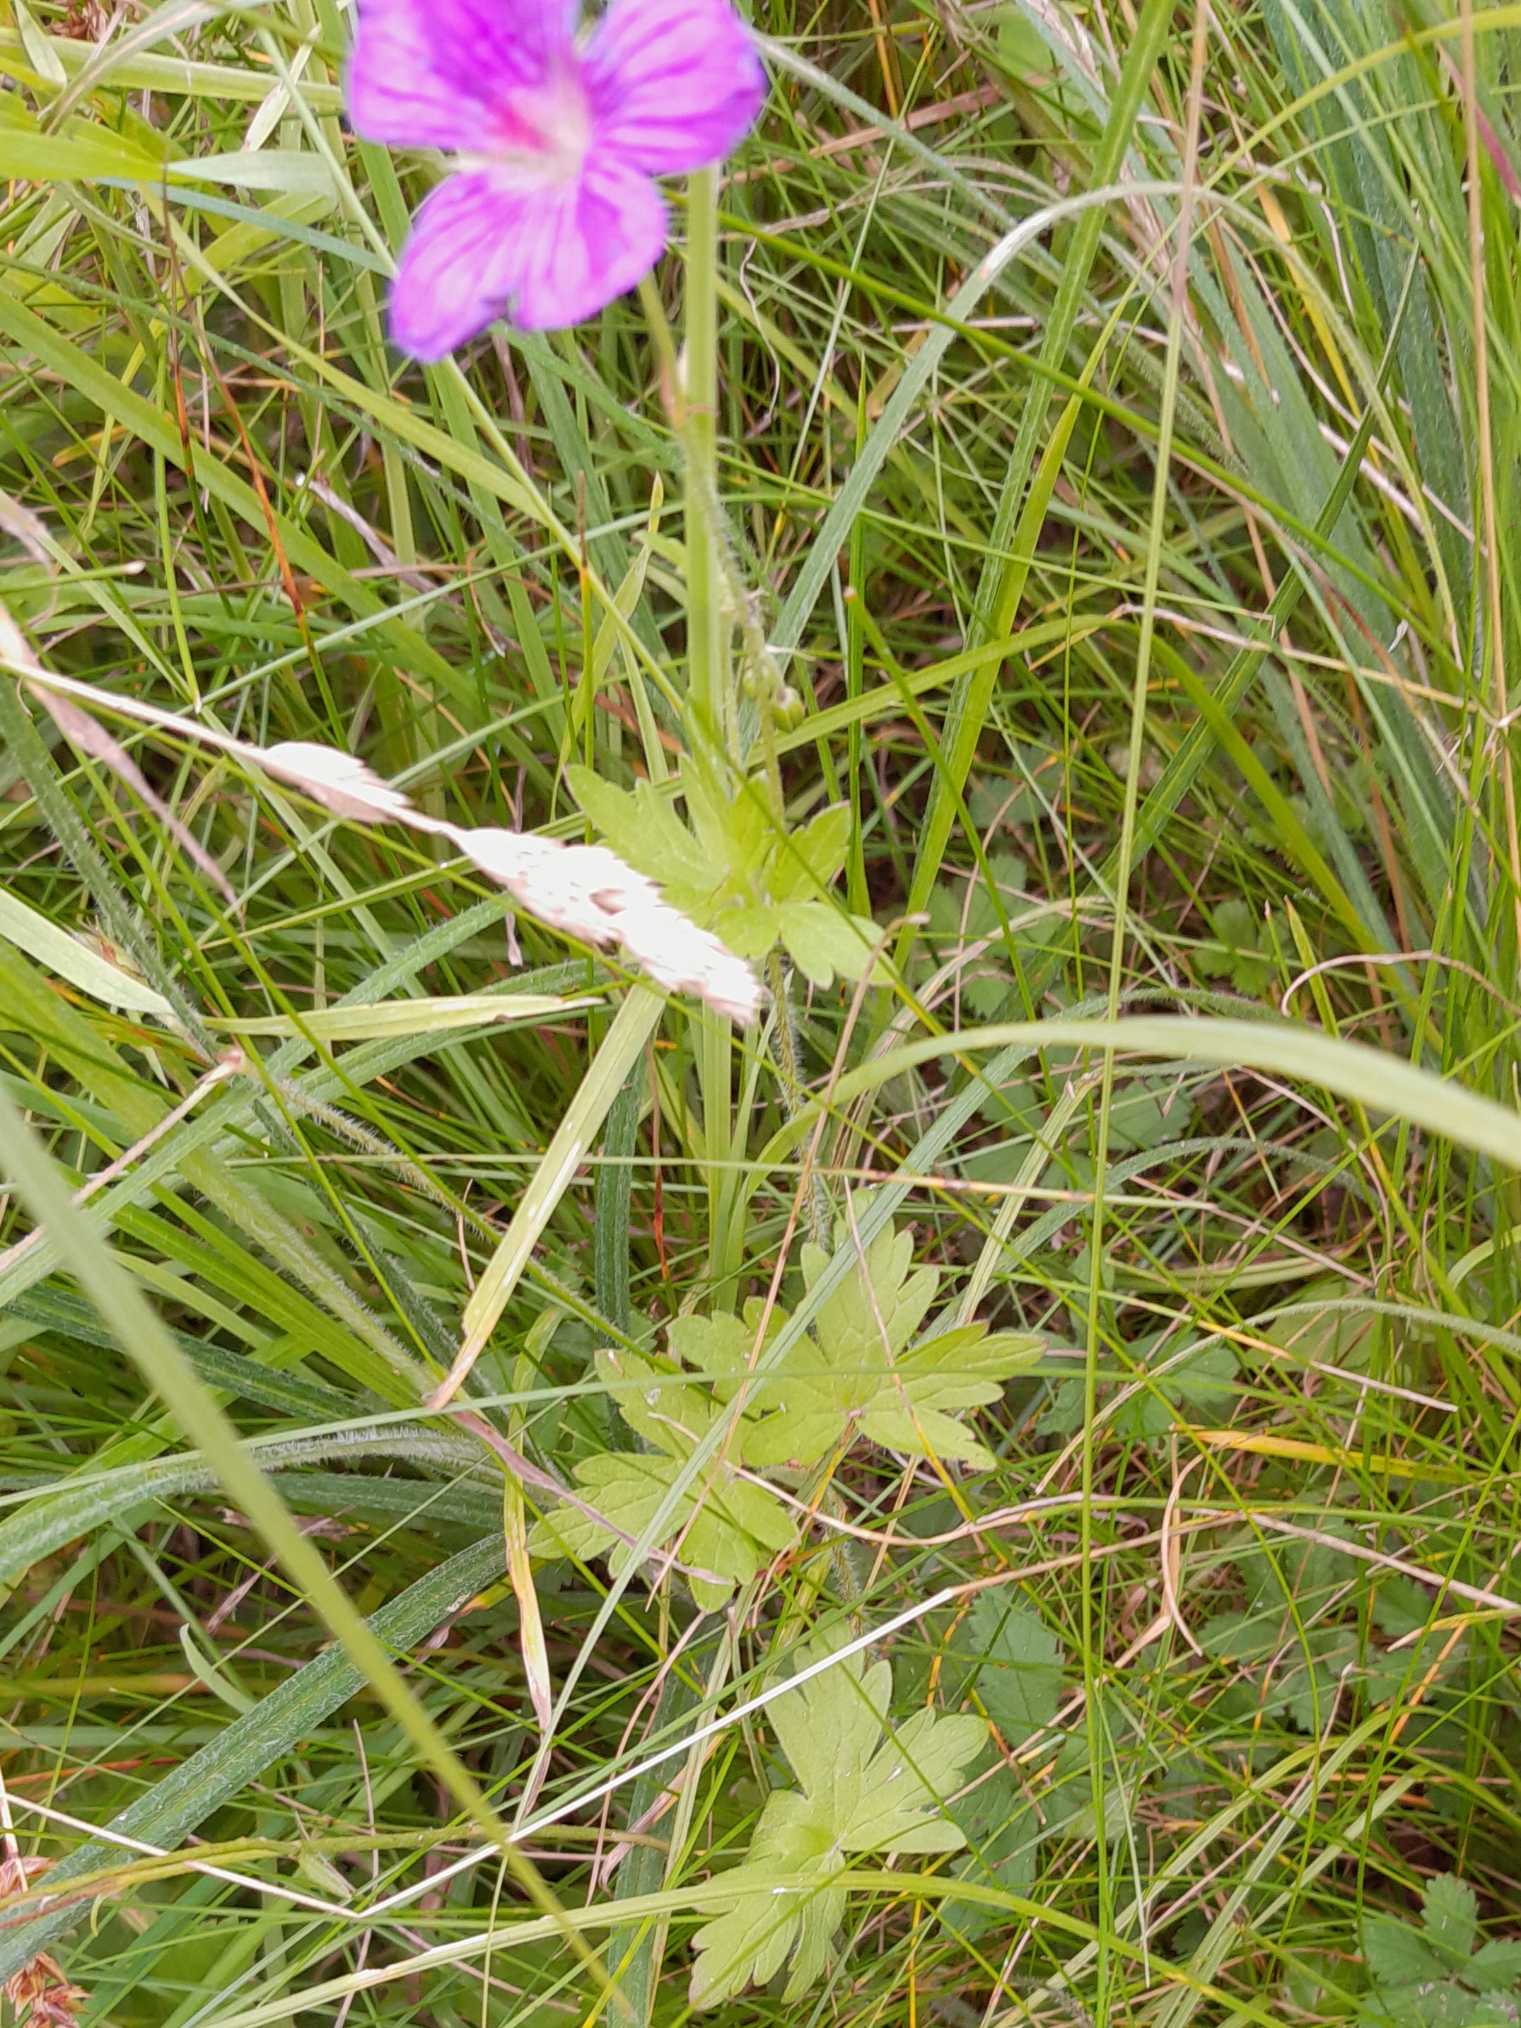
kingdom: Plantae
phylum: Tracheophyta
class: Magnoliopsida
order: Geraniales
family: Geraniaceae
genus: Geranium
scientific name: Geranium palustre
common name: Kær-storkenæb
